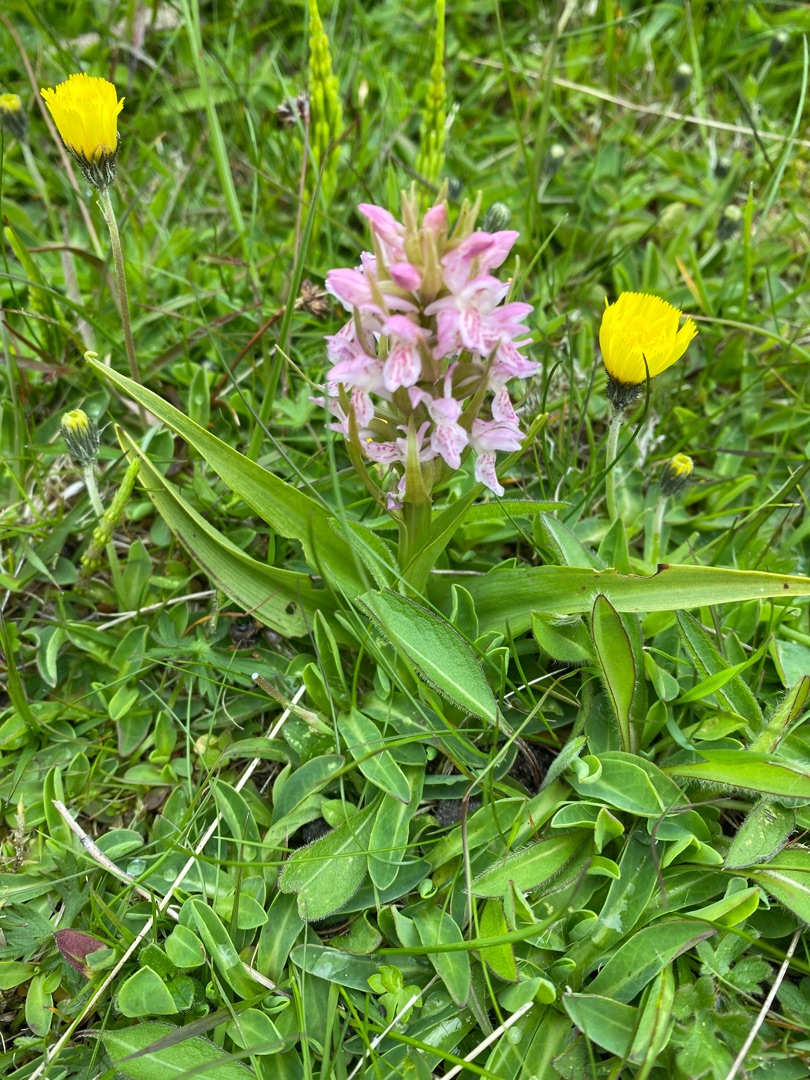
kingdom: Plantae
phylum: Tracheophyta
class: Liliopsida
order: Asparagales
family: Orchidaceae
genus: Dactylorhiza
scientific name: Dactylorhiza incarnata
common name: Kødfarvet gøgeurt
